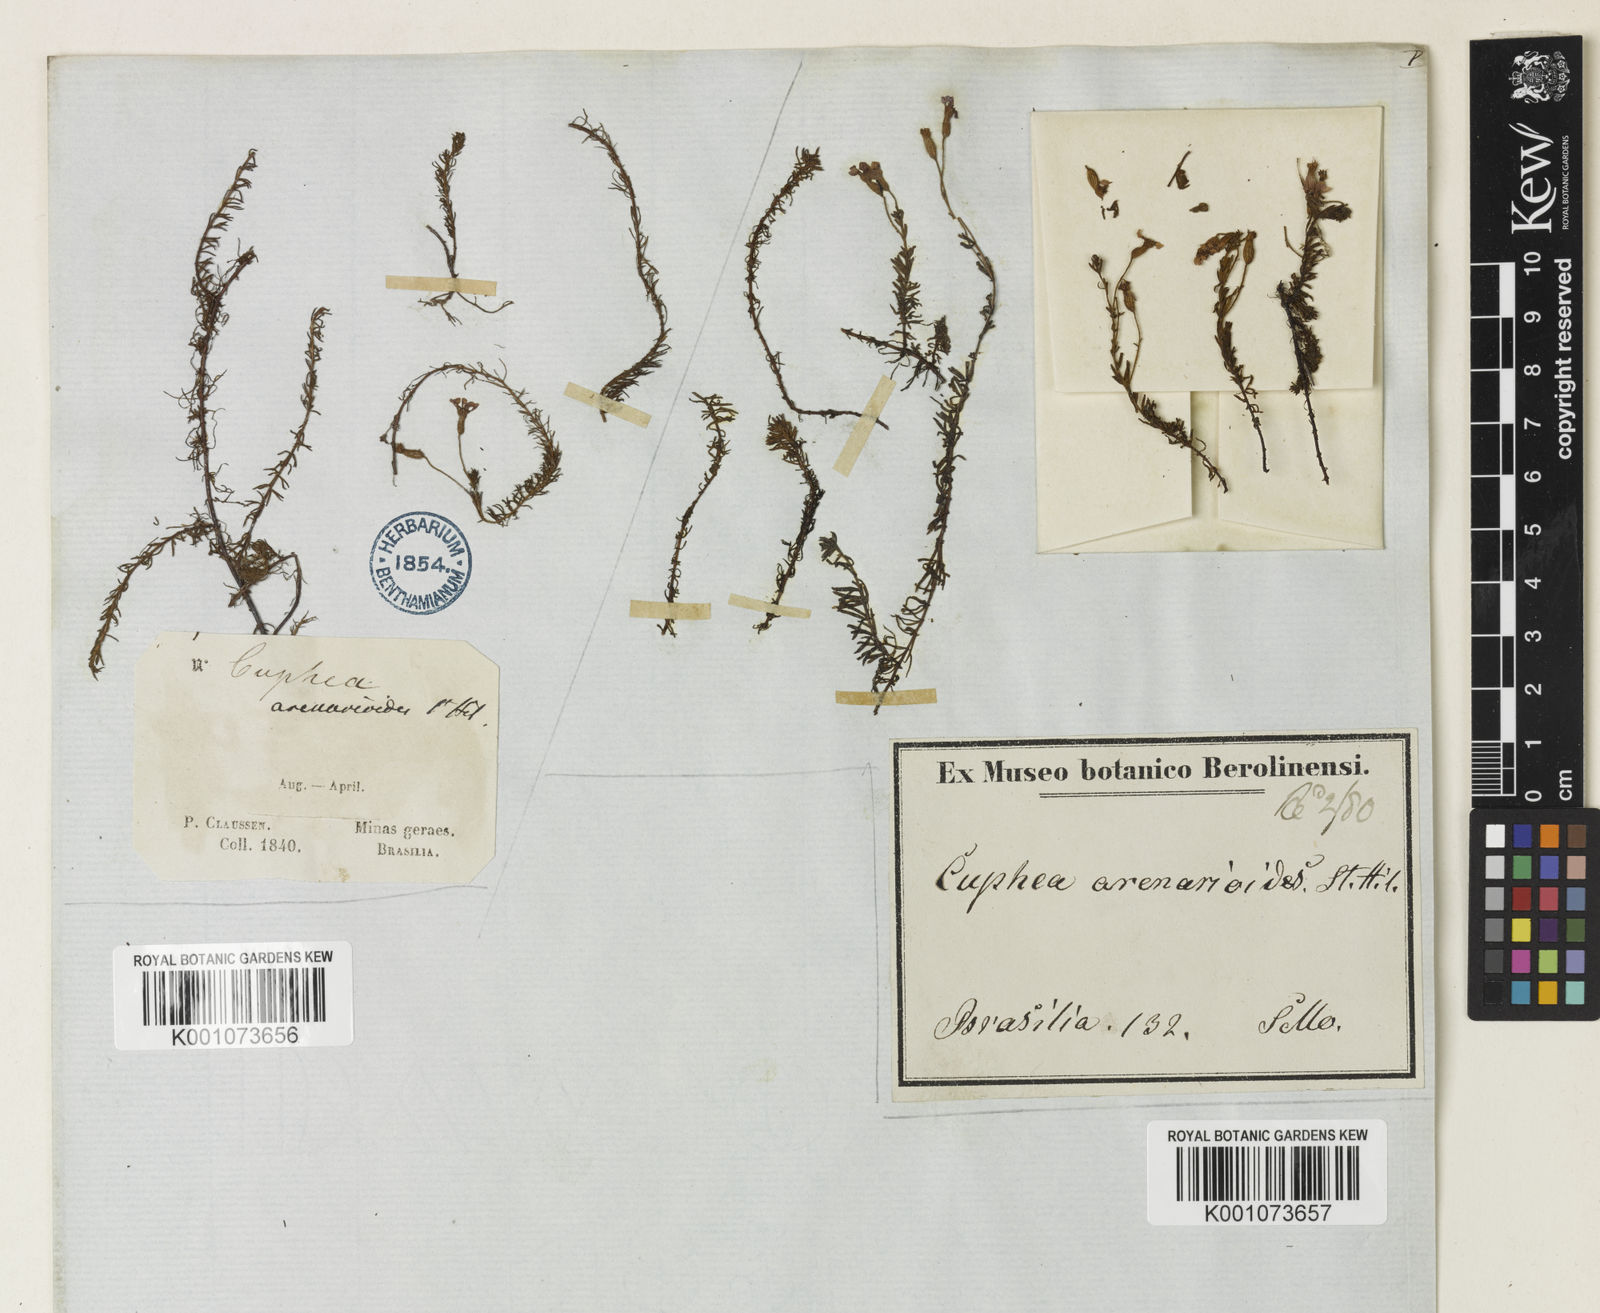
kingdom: Plantae
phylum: Tracheophyta
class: Magnoliopsida
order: Myrtales
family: Lythraceae
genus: Cuphea
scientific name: Cuphea arenarioides
